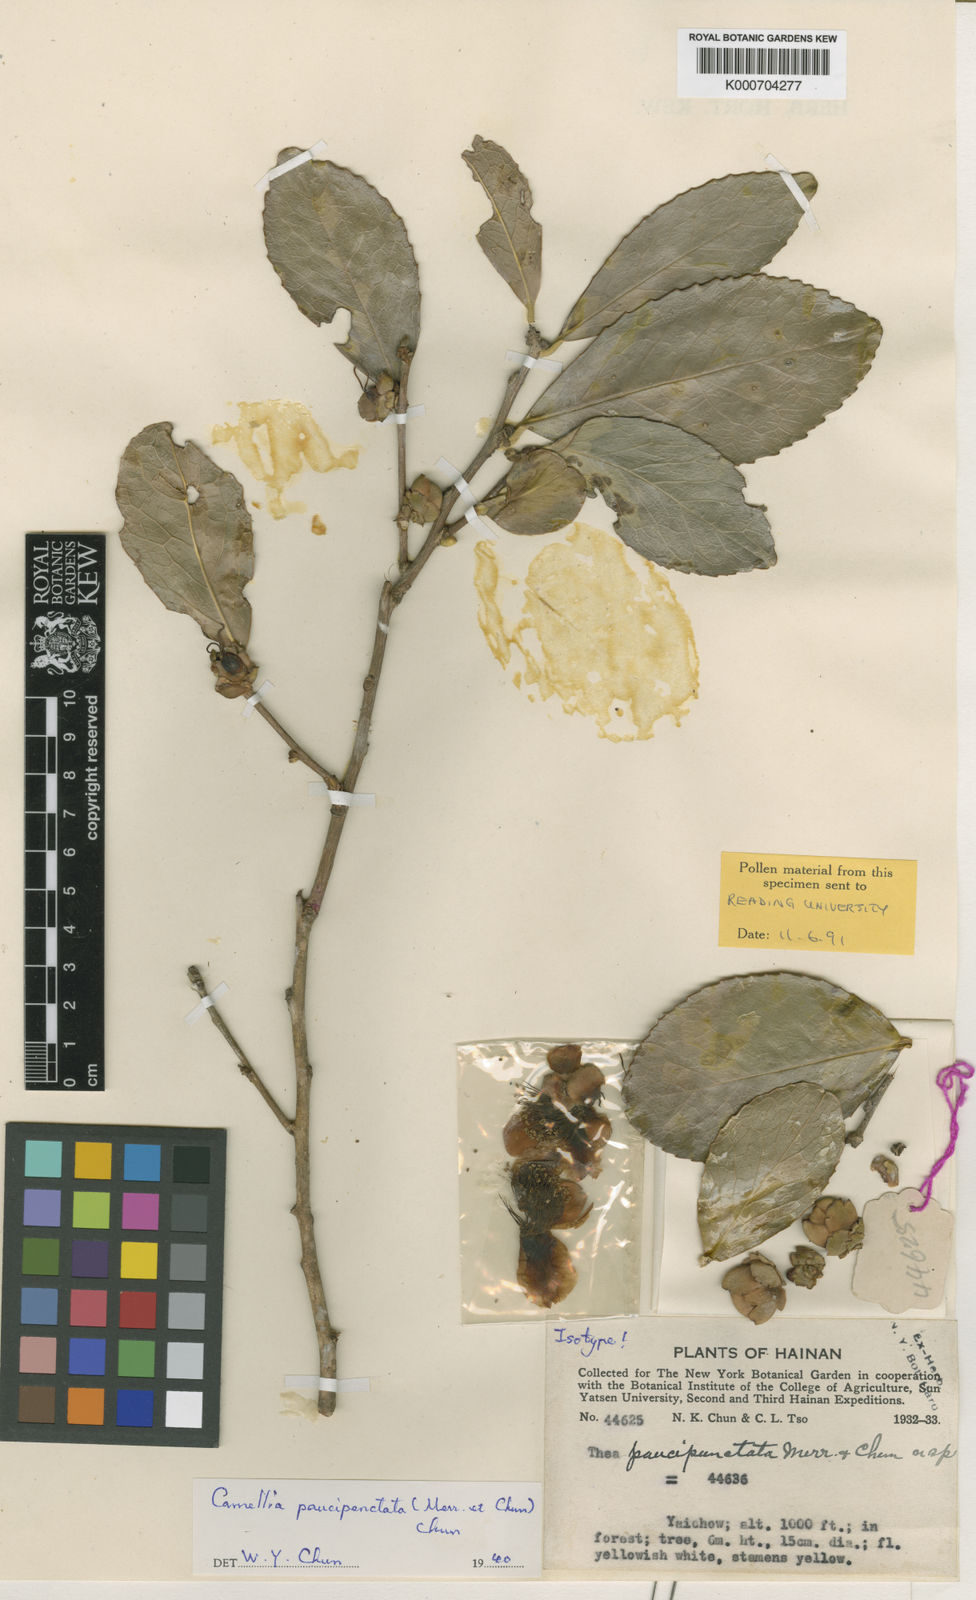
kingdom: Plantae
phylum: Tracheophyta
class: Magnoliopsida
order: Ericales
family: Theaceae
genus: Camellia
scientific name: Camellia paucipunctata
